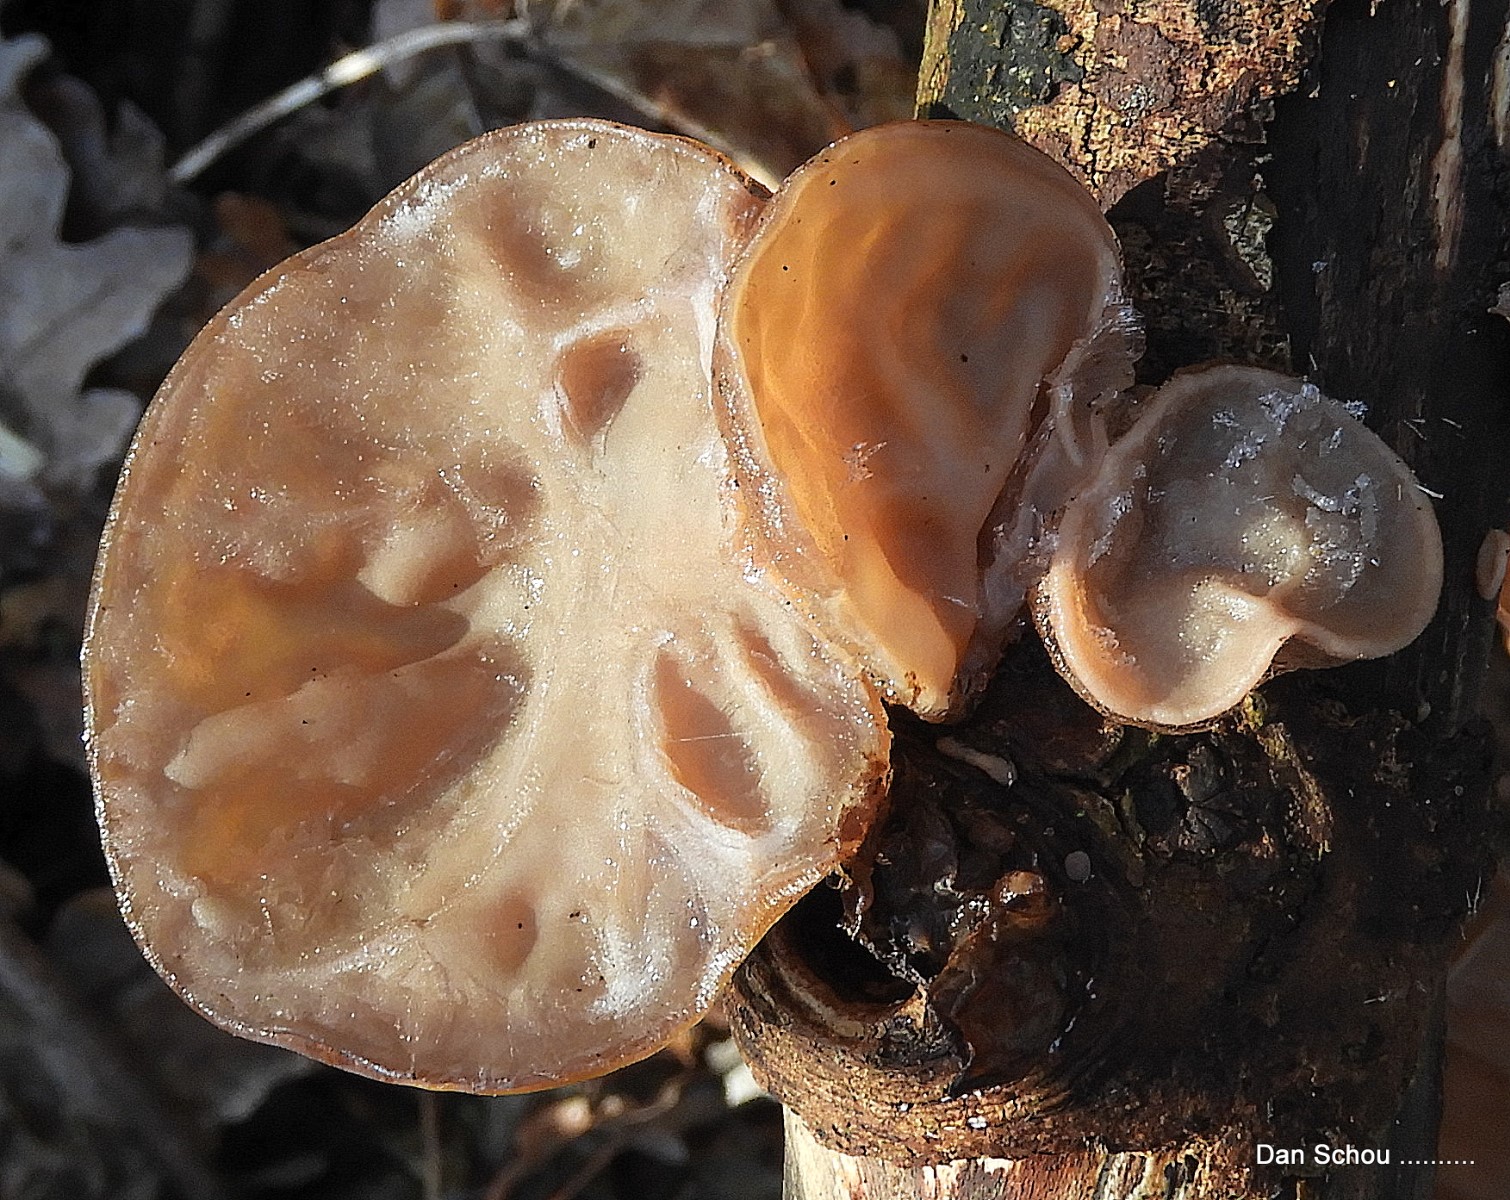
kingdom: Fungi
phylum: Basidiomycota
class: Agaricomycetes
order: Auriculariales
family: Auriculariaceae
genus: Auricularia
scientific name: Auricularia auricula-judae
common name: almindelig judasøre
